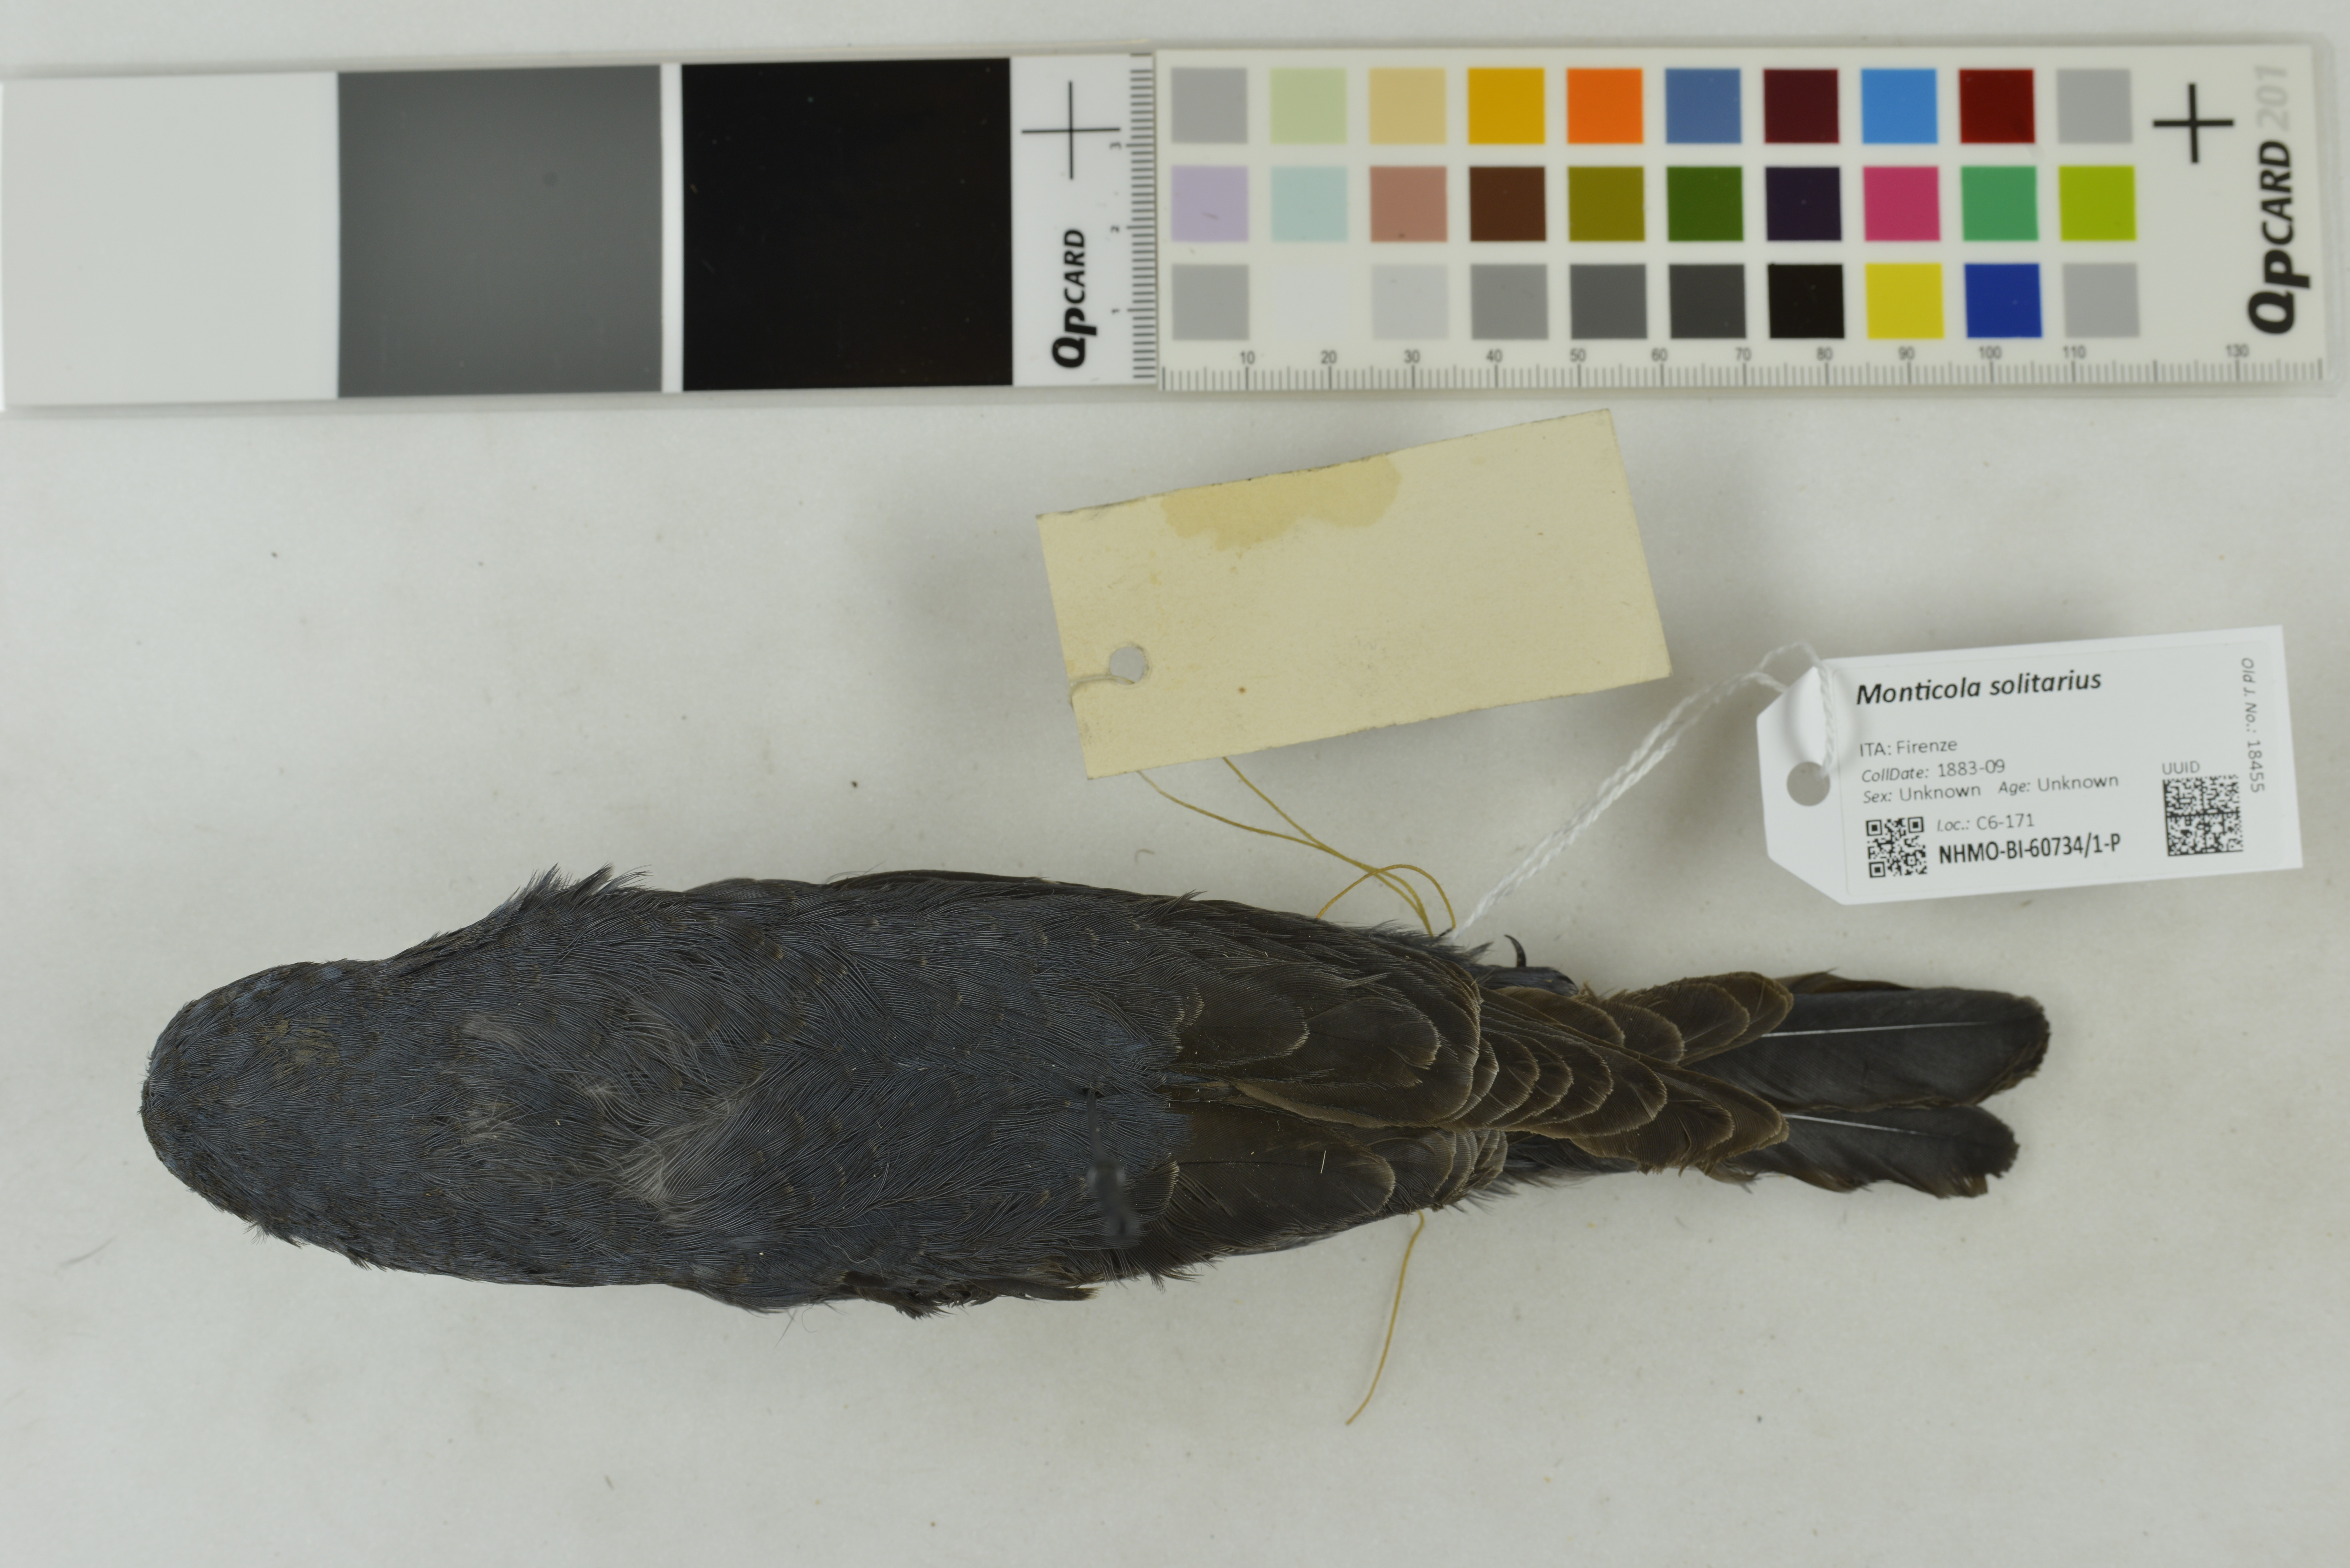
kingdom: Animalia
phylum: Chordata
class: Aves
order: Passeriformes
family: Muscicapidae
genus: Monticola
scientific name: Monticola solitarius
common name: Blue rock thrush
